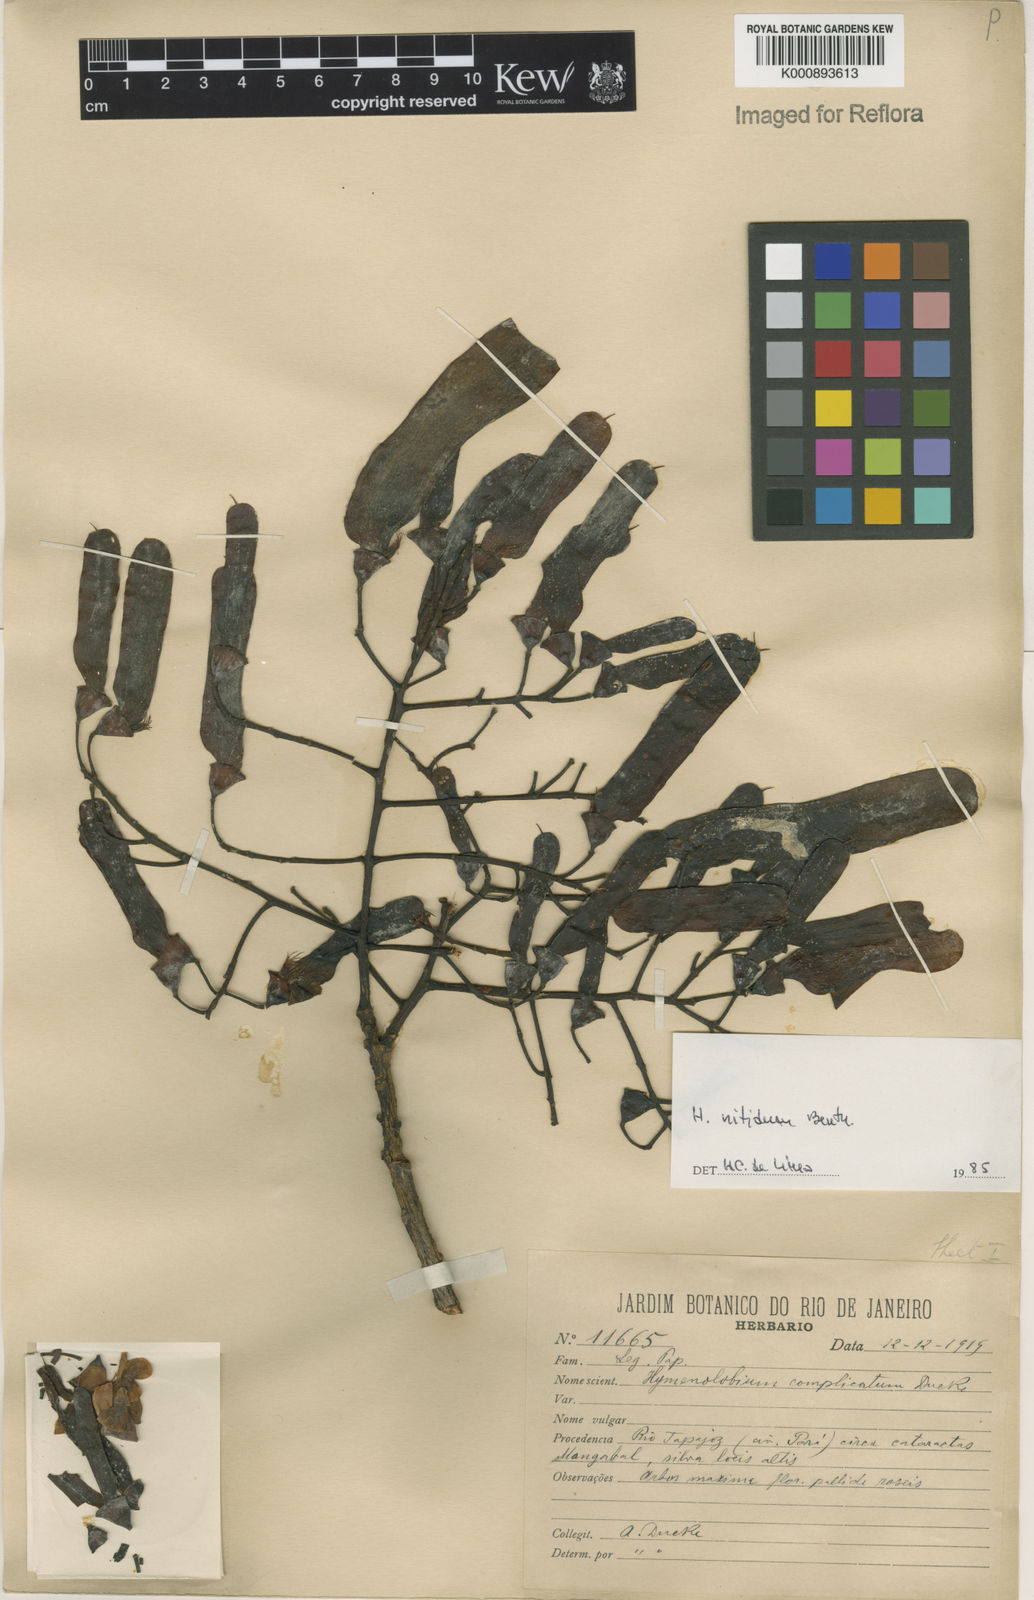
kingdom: Plantae
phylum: Tracheophyta
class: Magnoliopsida
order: Fabales
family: Fabaceae
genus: Hymenolobium
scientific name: Hymenolobium nitidum
